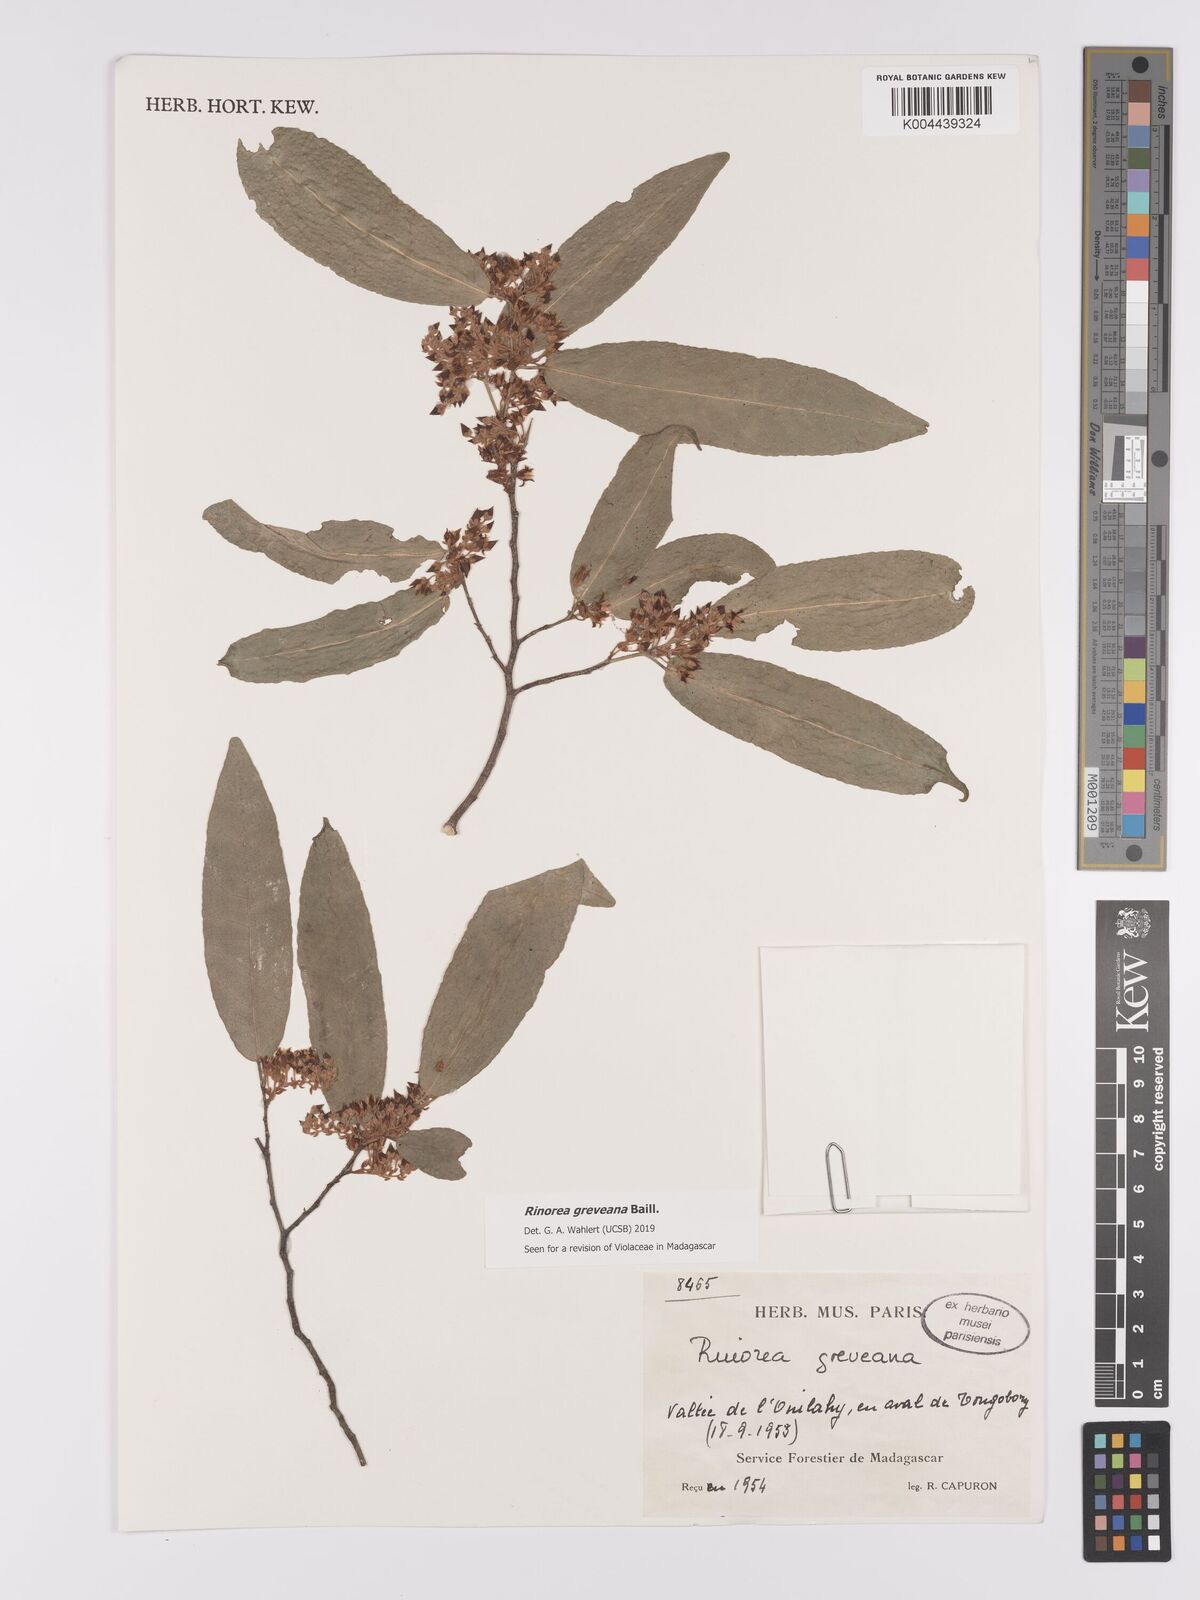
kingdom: Plantae
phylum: Tracheophyta
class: Magnoliopsida
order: Malpighiales
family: Violaceae
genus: Rinorea
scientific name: Rinorea greveana
